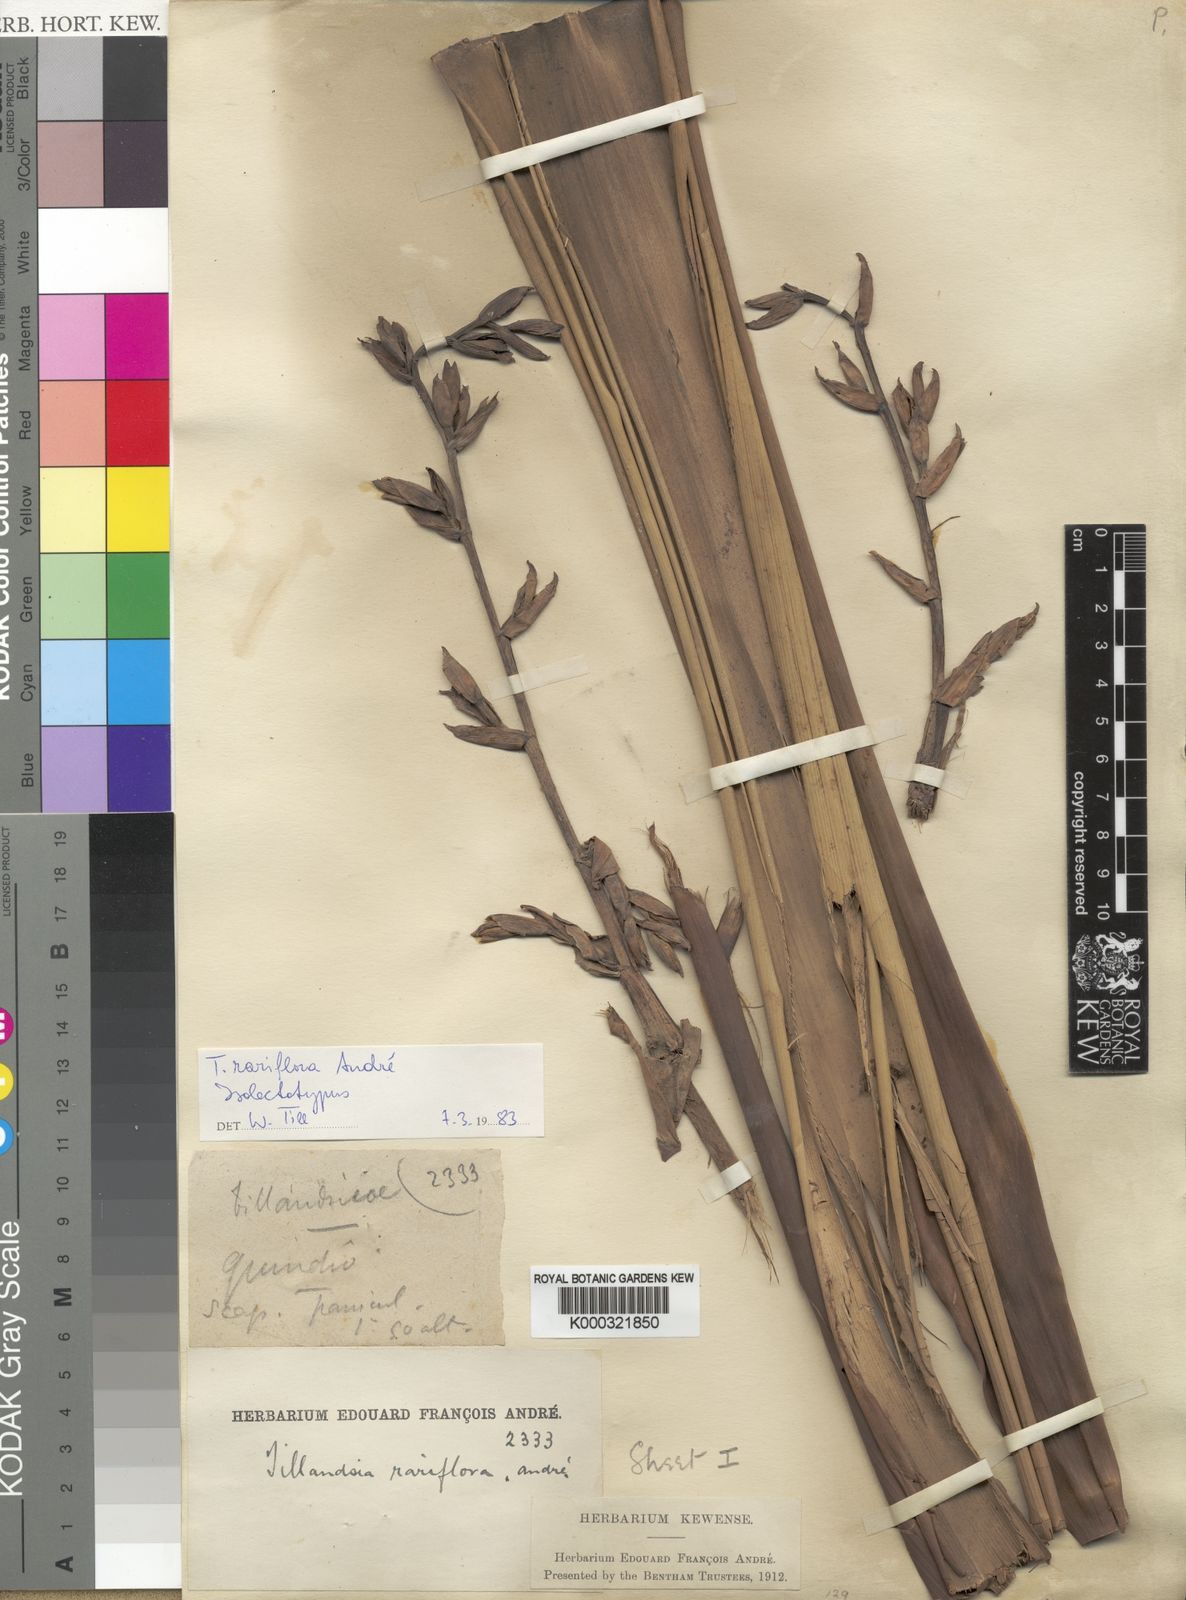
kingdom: Plantae
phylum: Tracheophyta
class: Liliopsida
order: Poales
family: Bromeliaceae
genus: Tillandsia
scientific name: Tillandsia
